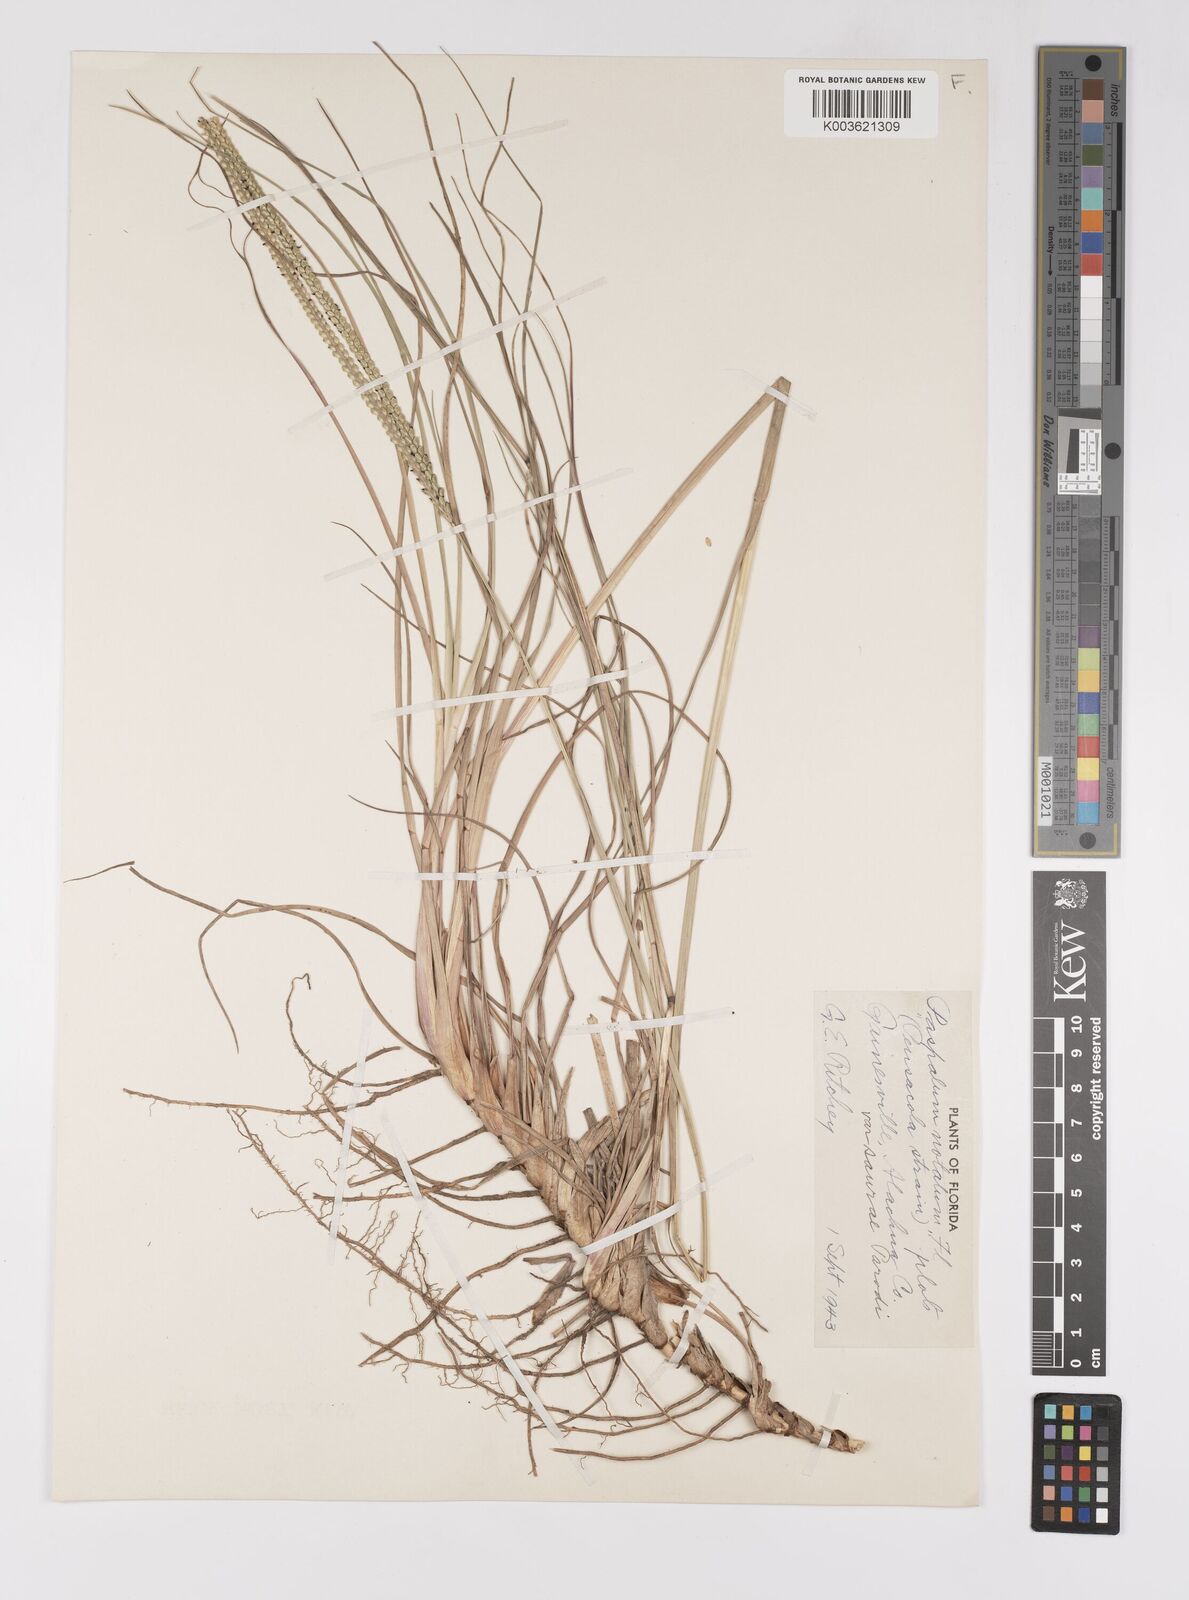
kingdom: Plantae
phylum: Tracheophyta
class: Liliopsida
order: Poales
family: Poaceae
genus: Paspalum
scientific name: Paspalum notatum
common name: Bahiagrass
